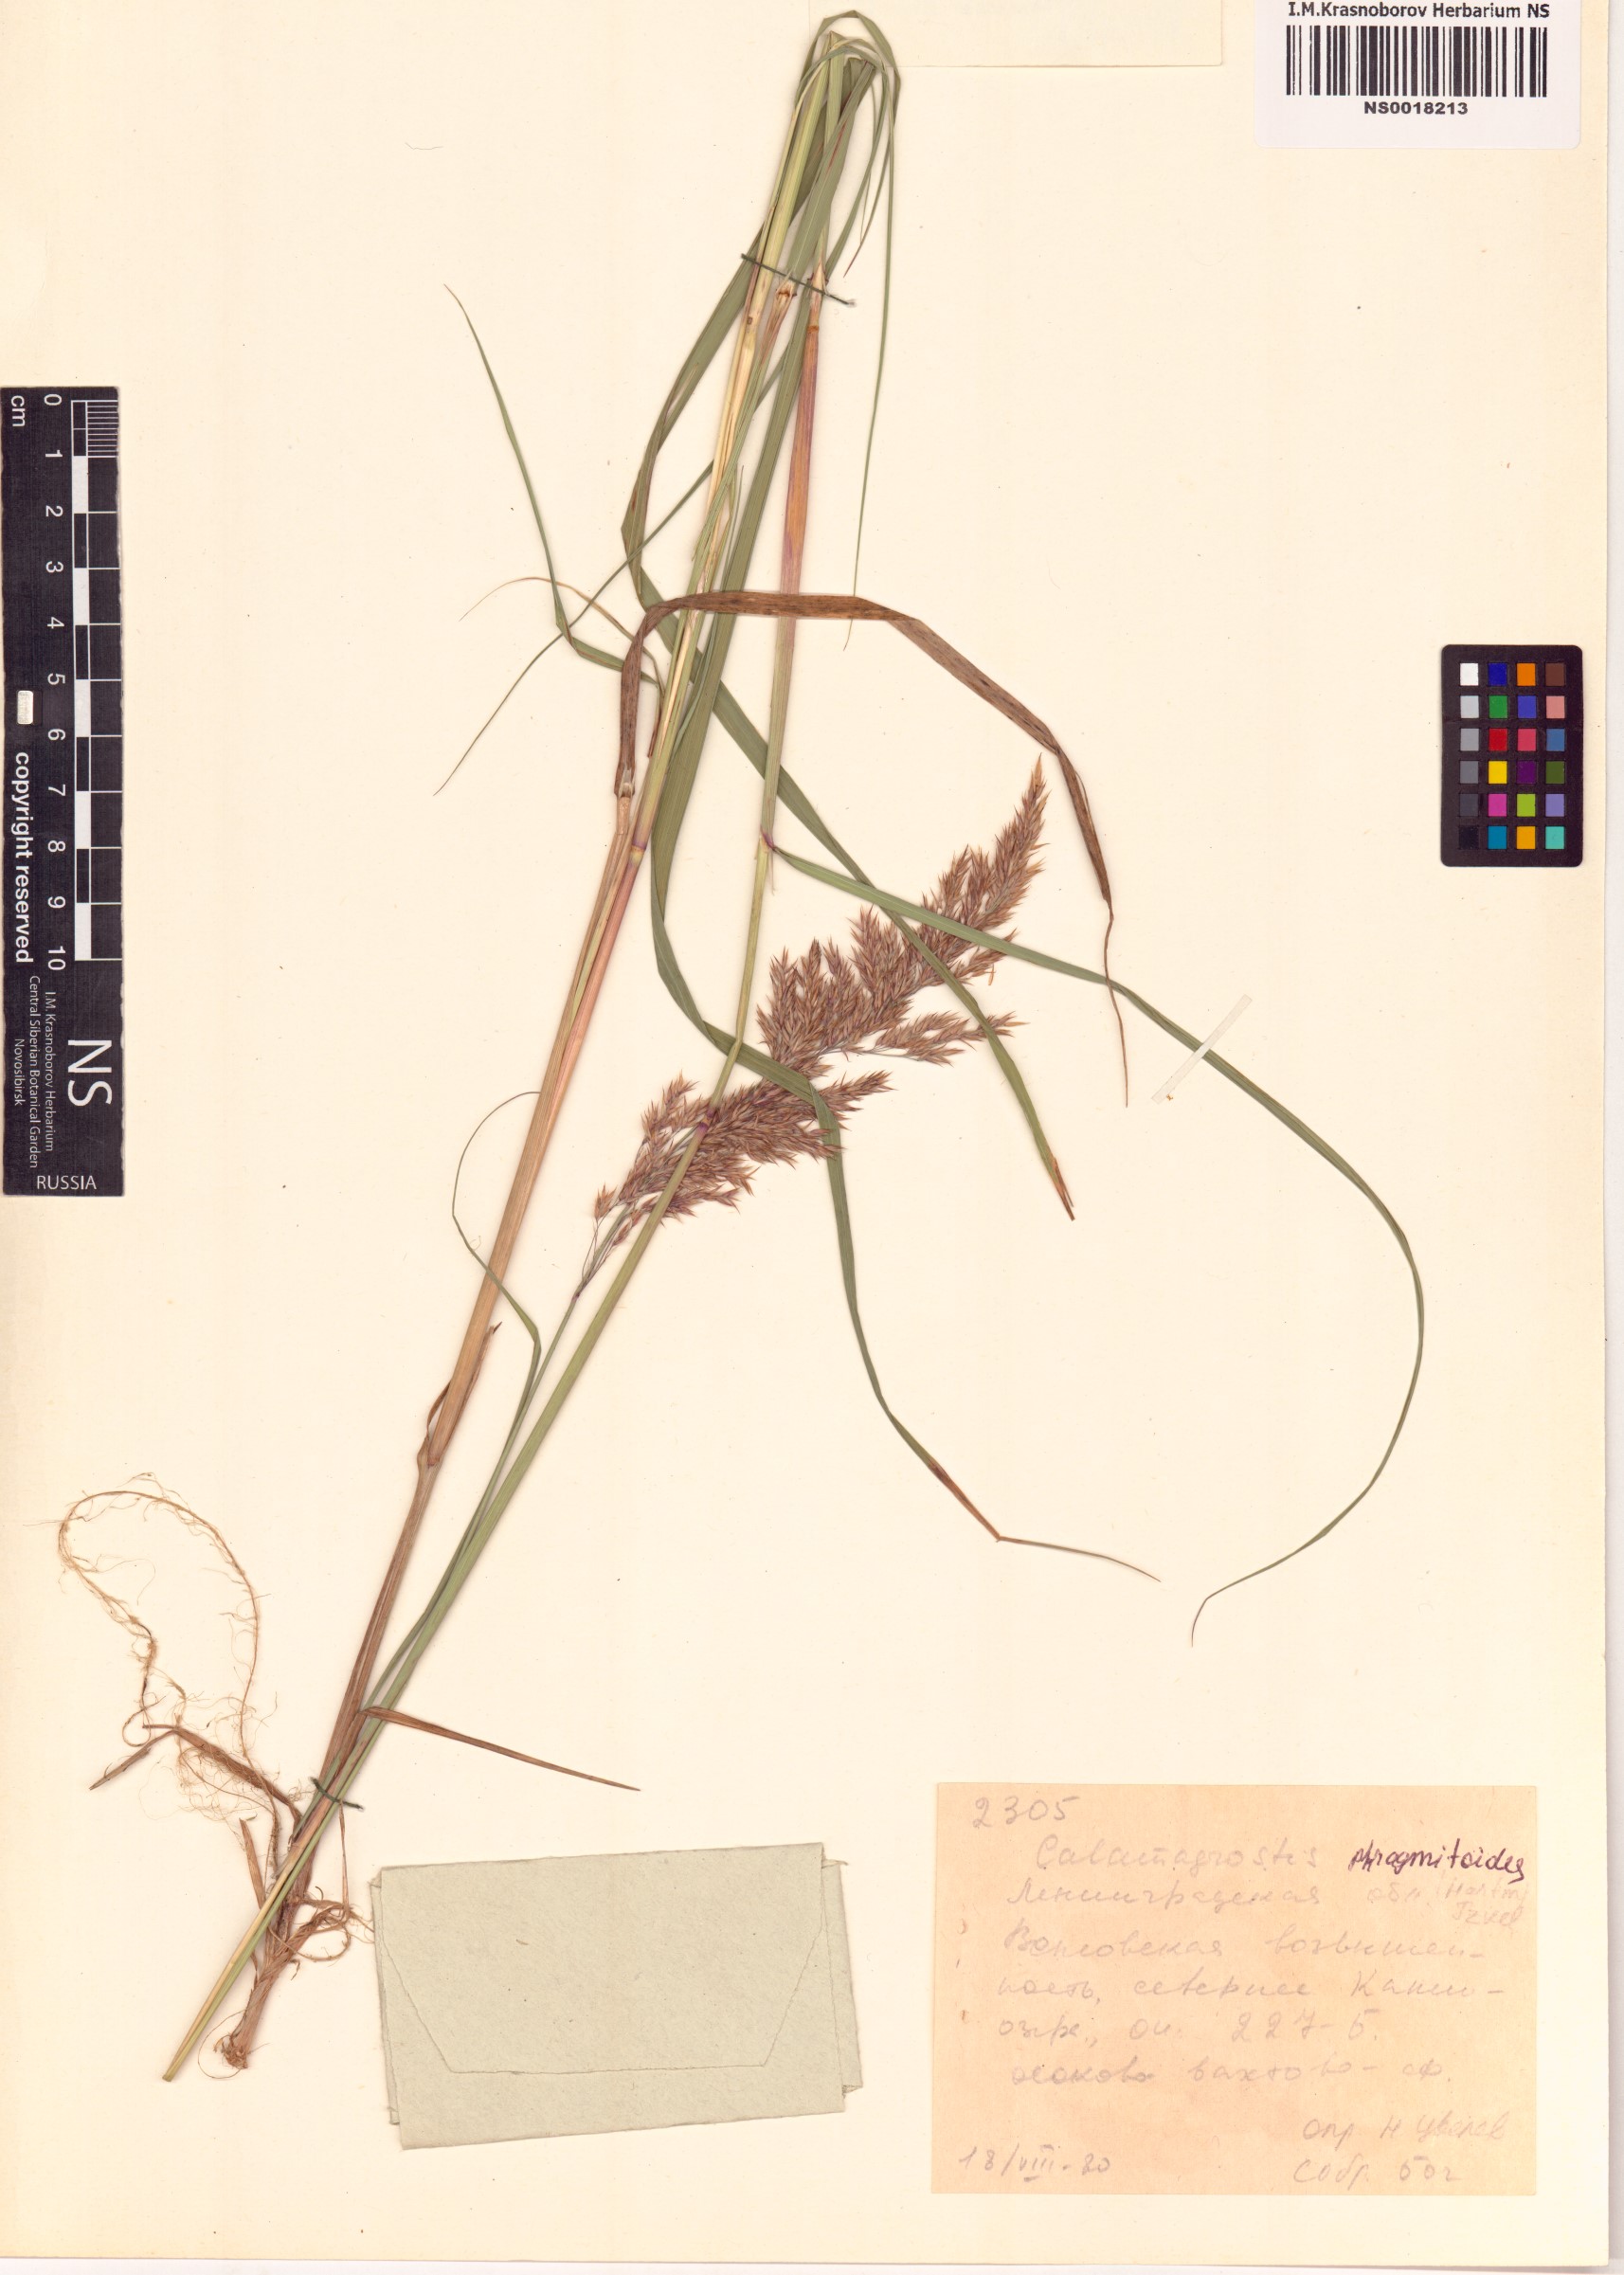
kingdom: Plantae
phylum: Tracheophyta
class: Liliopsida
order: Poales
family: Poaceae
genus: Calamagrostis
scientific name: Calamagrostis purpurea
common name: Scandinavian small-reed
